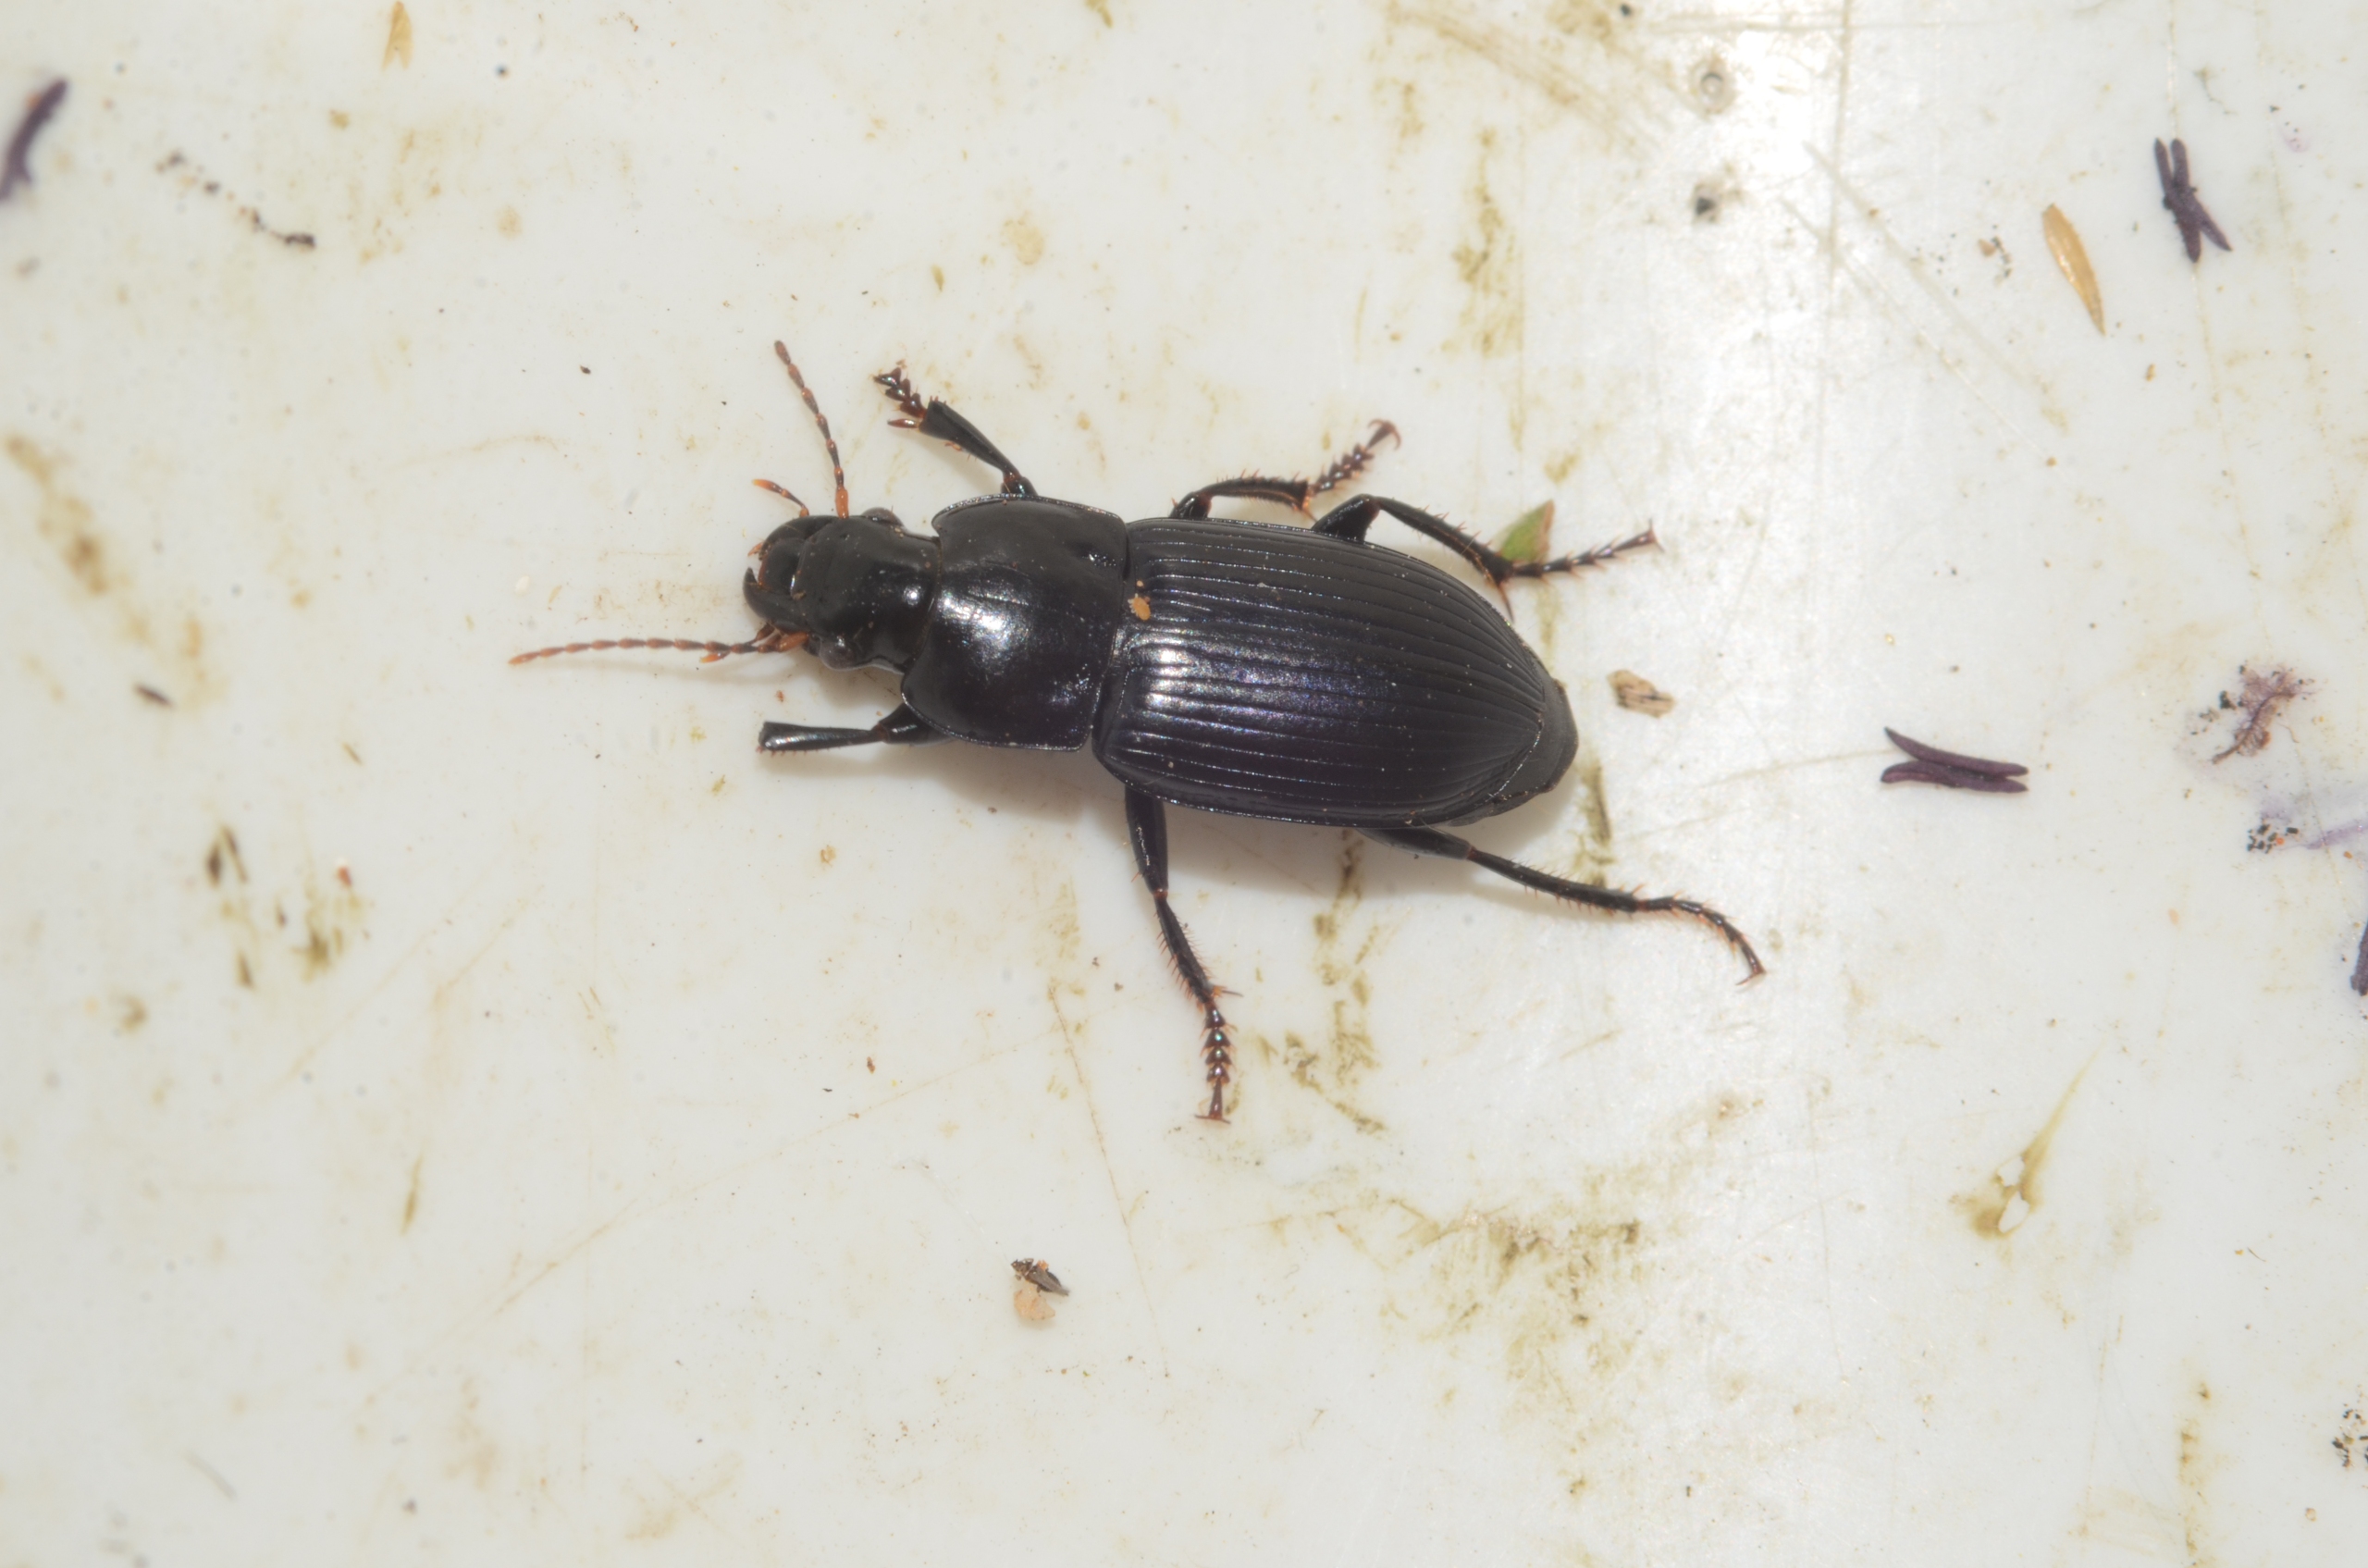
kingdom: Animalia
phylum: Arthropoda
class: Insecta
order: Coleoptera
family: Carabidae
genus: Harpalus
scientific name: Harpalus rufipalpis
